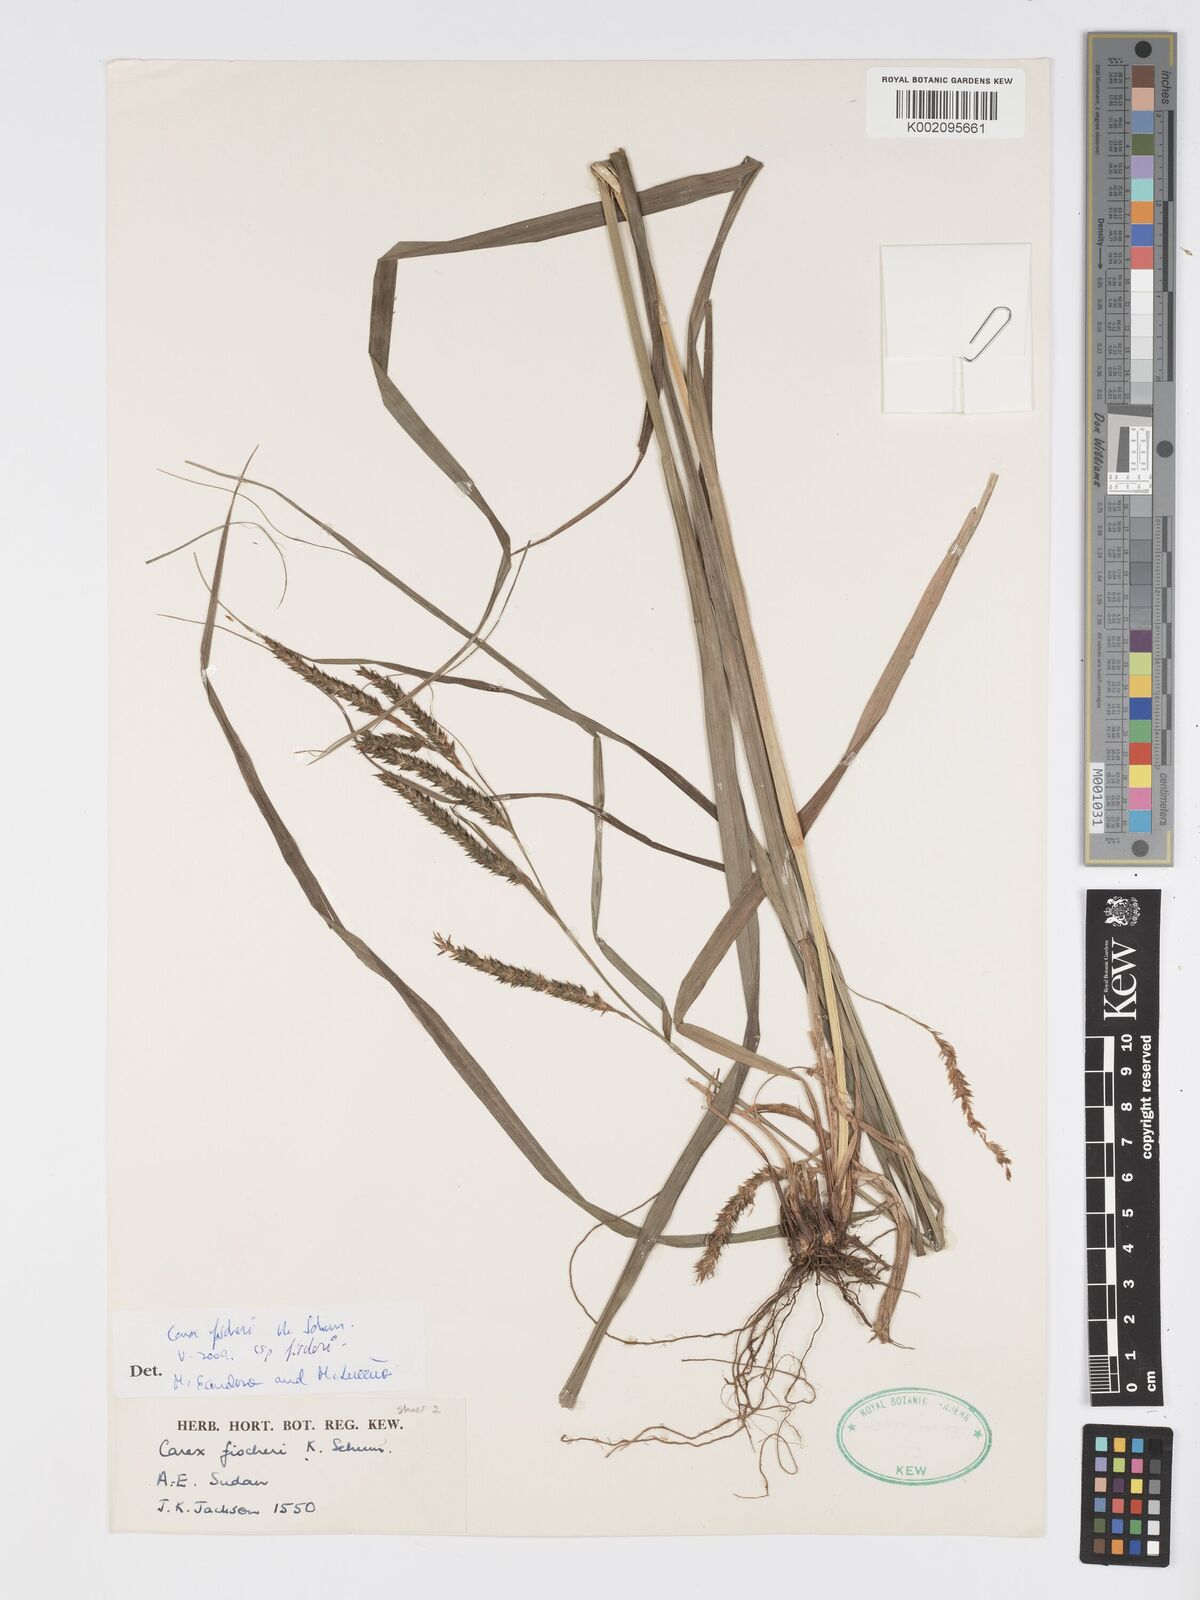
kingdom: Plantae
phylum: Tracheophyta
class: Liliopsida
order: Poales
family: Cyperaceae
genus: Carex
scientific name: Carex fischeri
